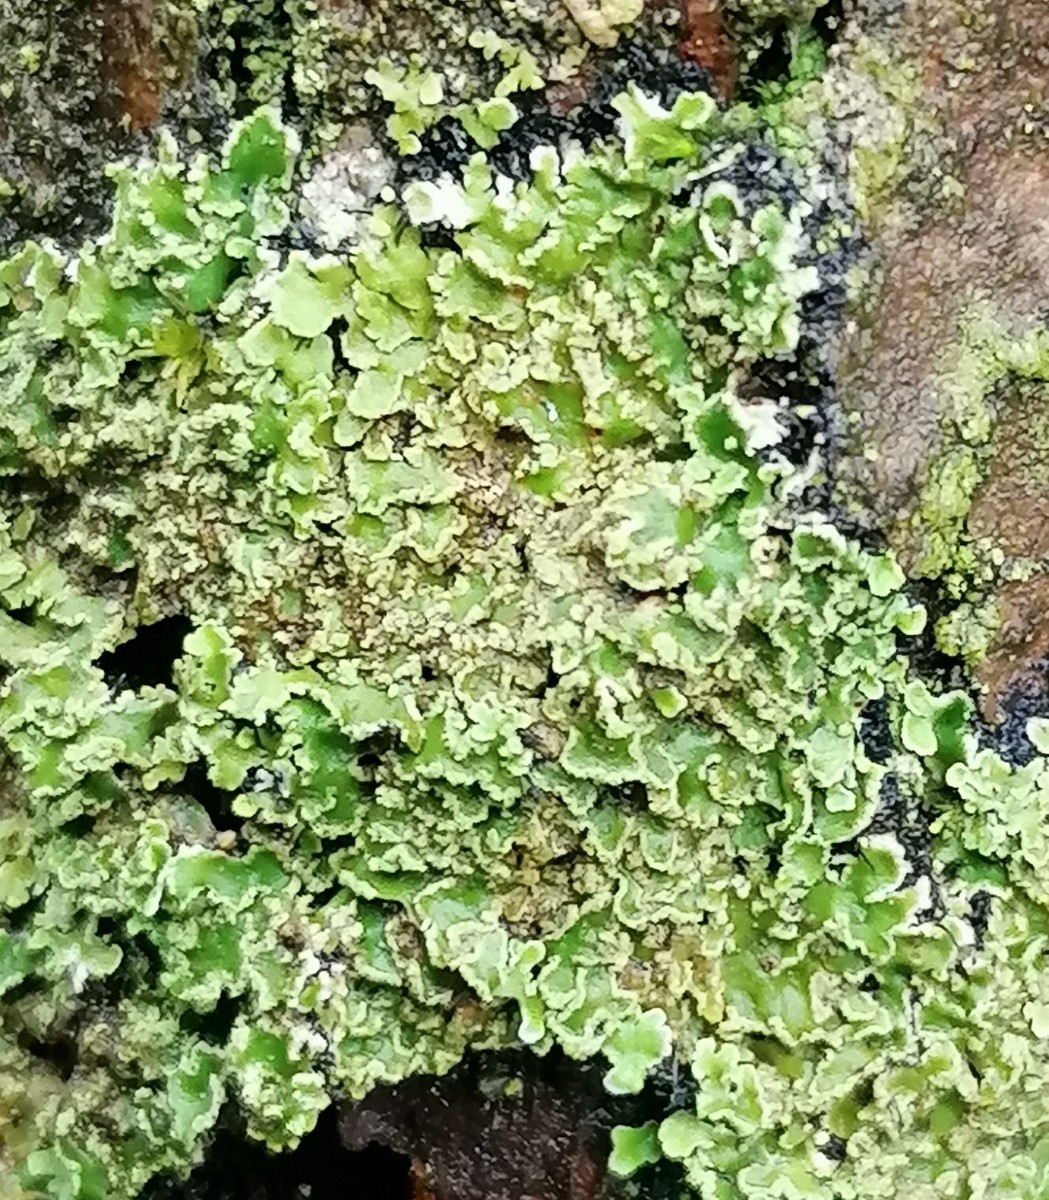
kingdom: Fungi
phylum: Ascomycota
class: Lecanoromycetes
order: Caliciales
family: Physciaceae
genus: Physconia
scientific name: Physconia enteroxantha
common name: grynet dugrosetlav
